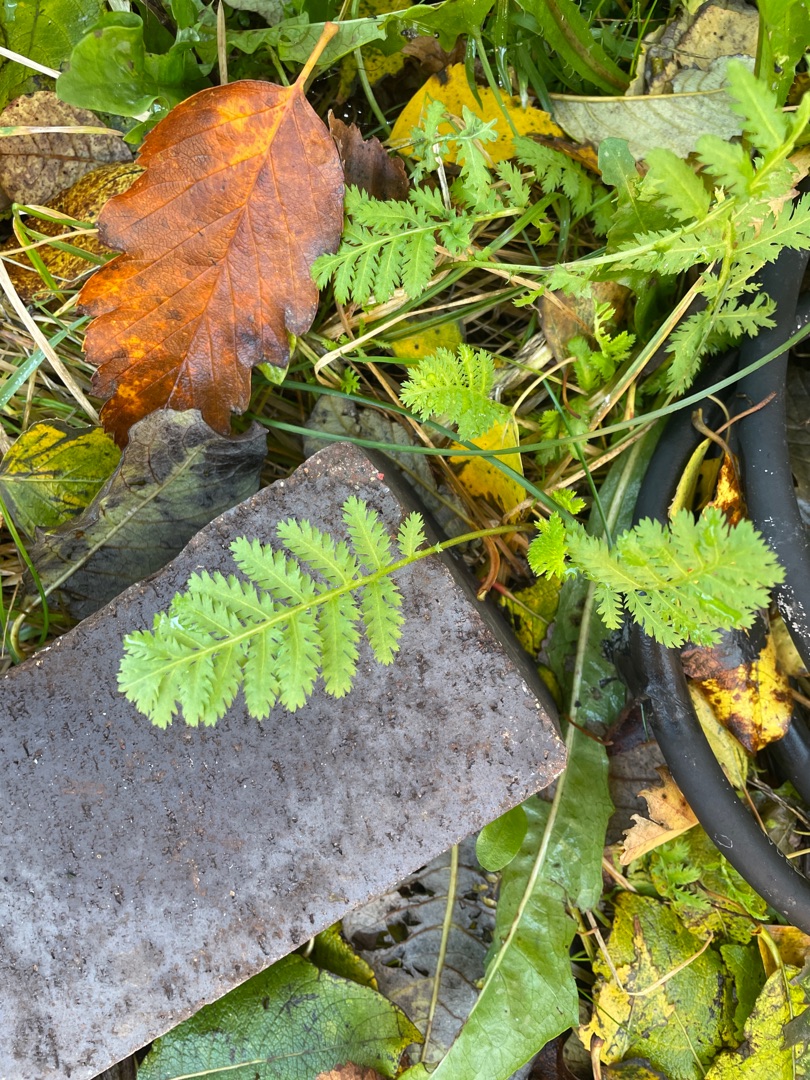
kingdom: Plantae
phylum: Tracheophyta
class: Magnoliopsida
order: Asterales
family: Asteraceae
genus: Tanacetum
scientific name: Tanacetum vulgare
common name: Rejnfan
